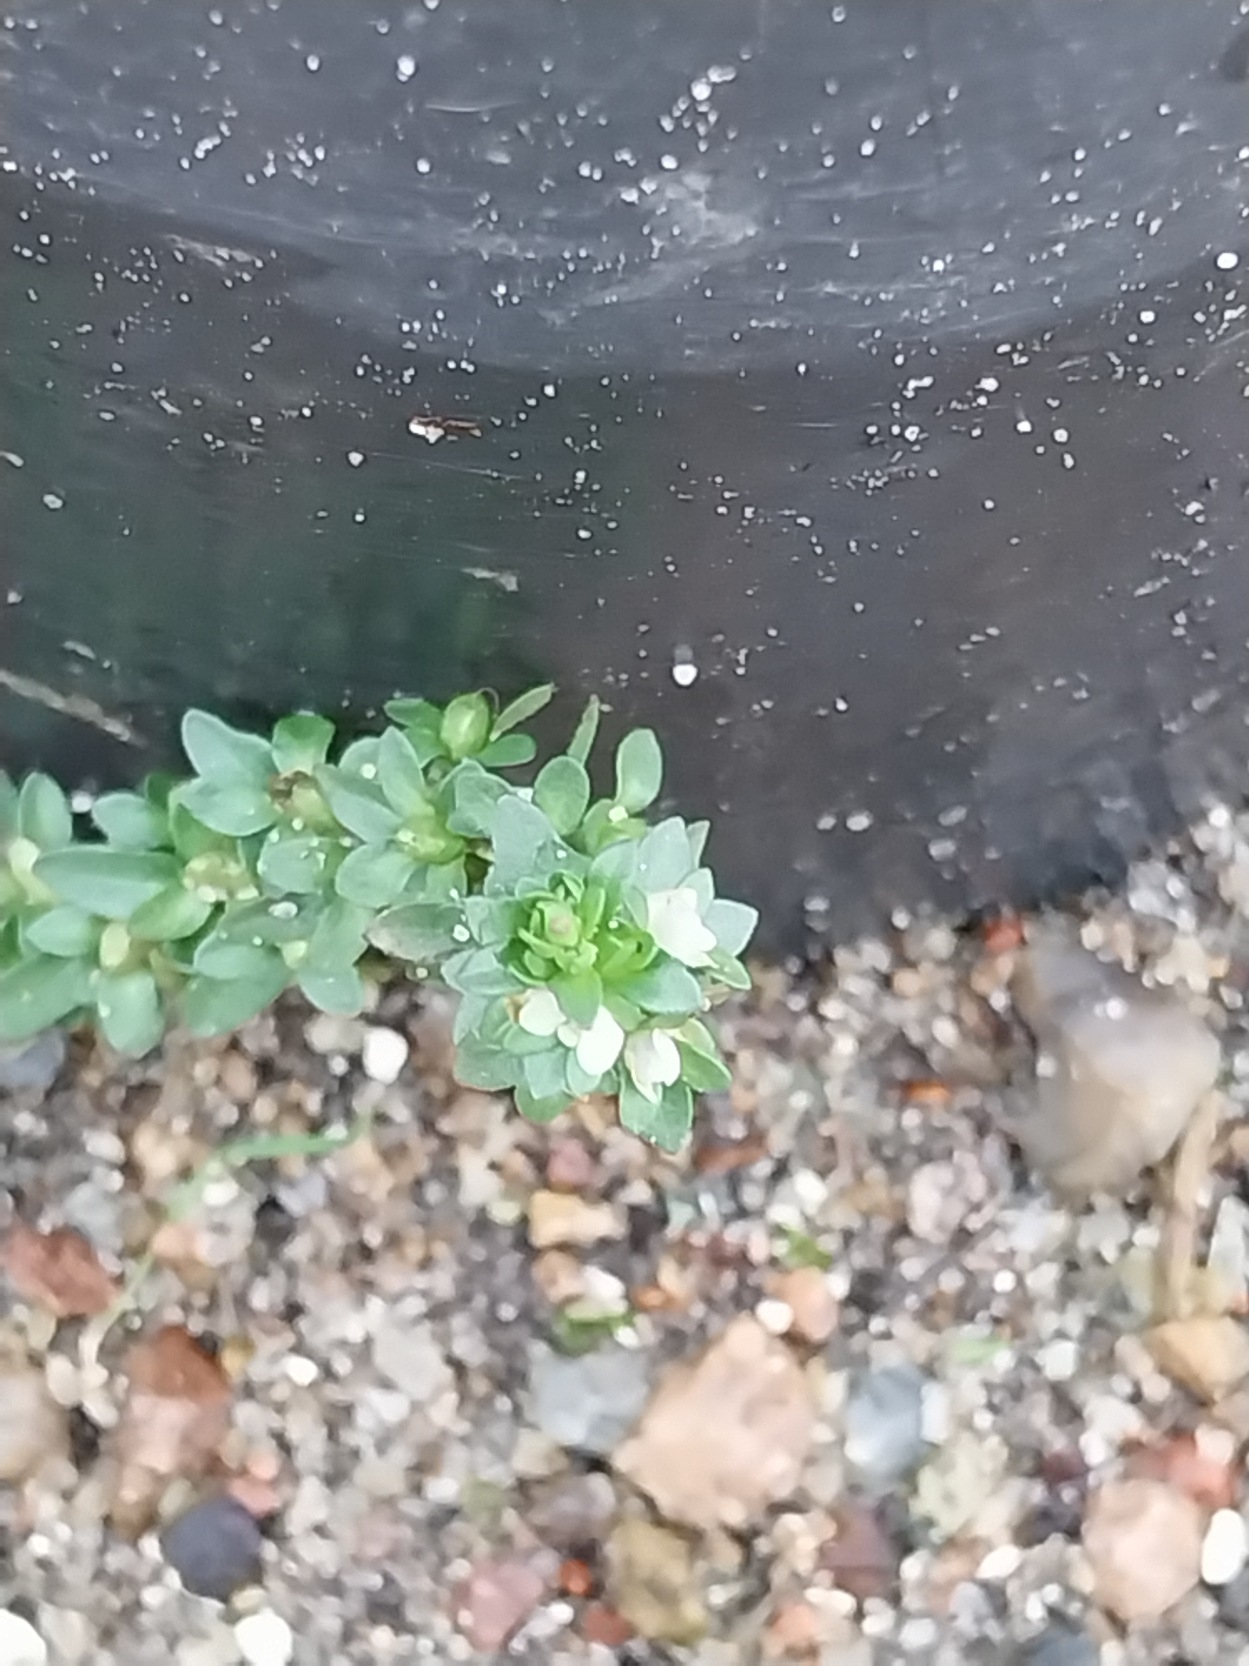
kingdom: Plantae
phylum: Tracheophyta
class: Magnoliopsida
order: Lamiales
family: Plantaginaceae
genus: Veronica
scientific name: Veronica serpyllifolia
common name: Glat ærenpris
